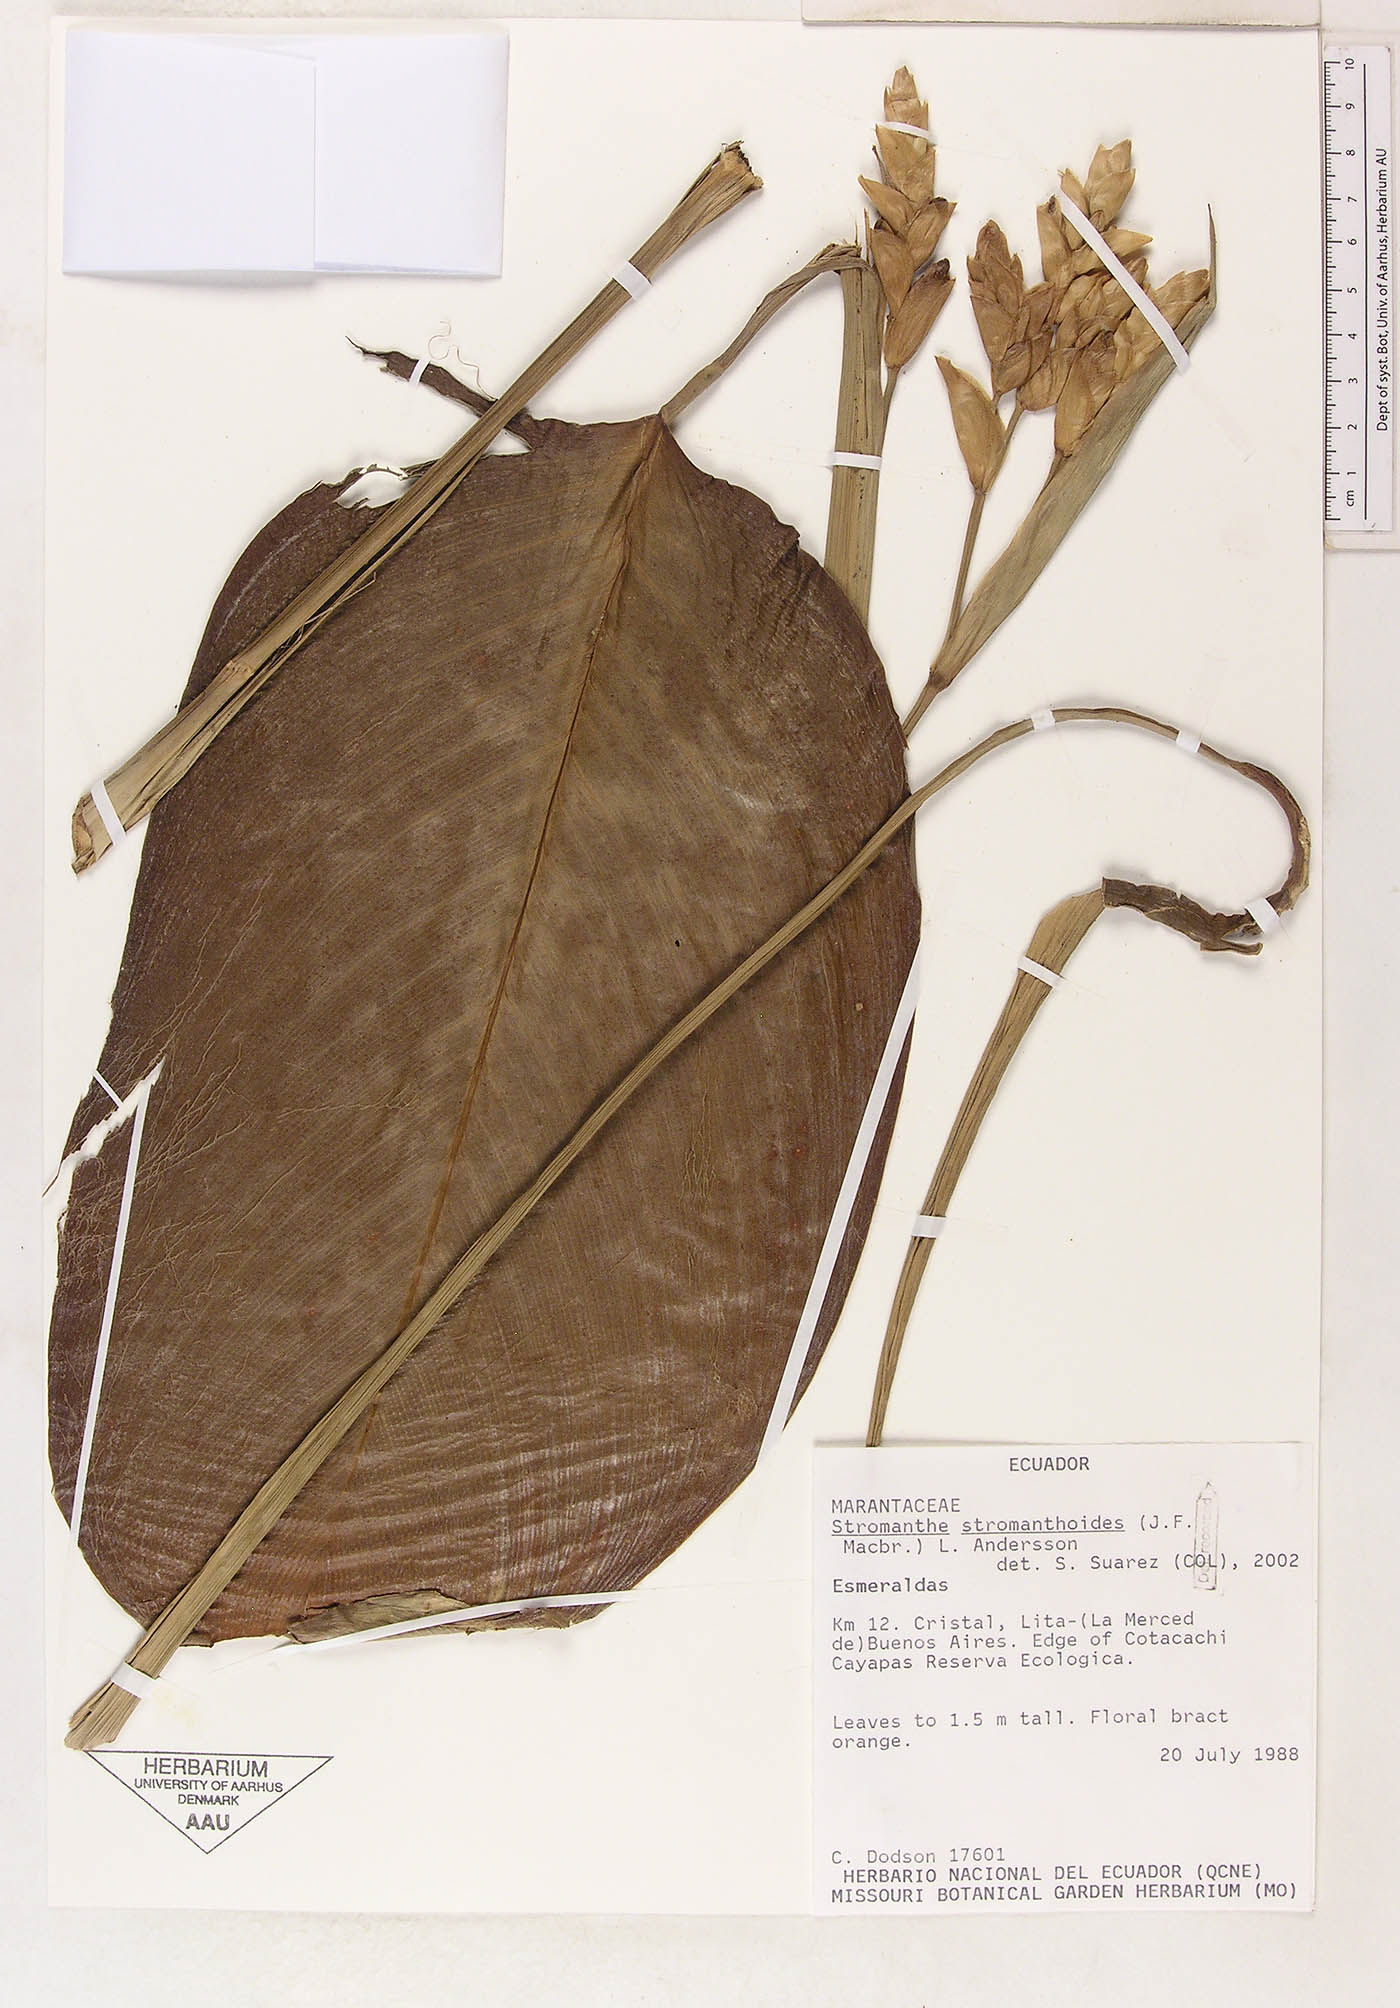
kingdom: Plantae
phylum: Tracheophyta
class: Liliopsida
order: Zingiberales
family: Marantaceae
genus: Stromanthe
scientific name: Stromanthe stromanthoides
